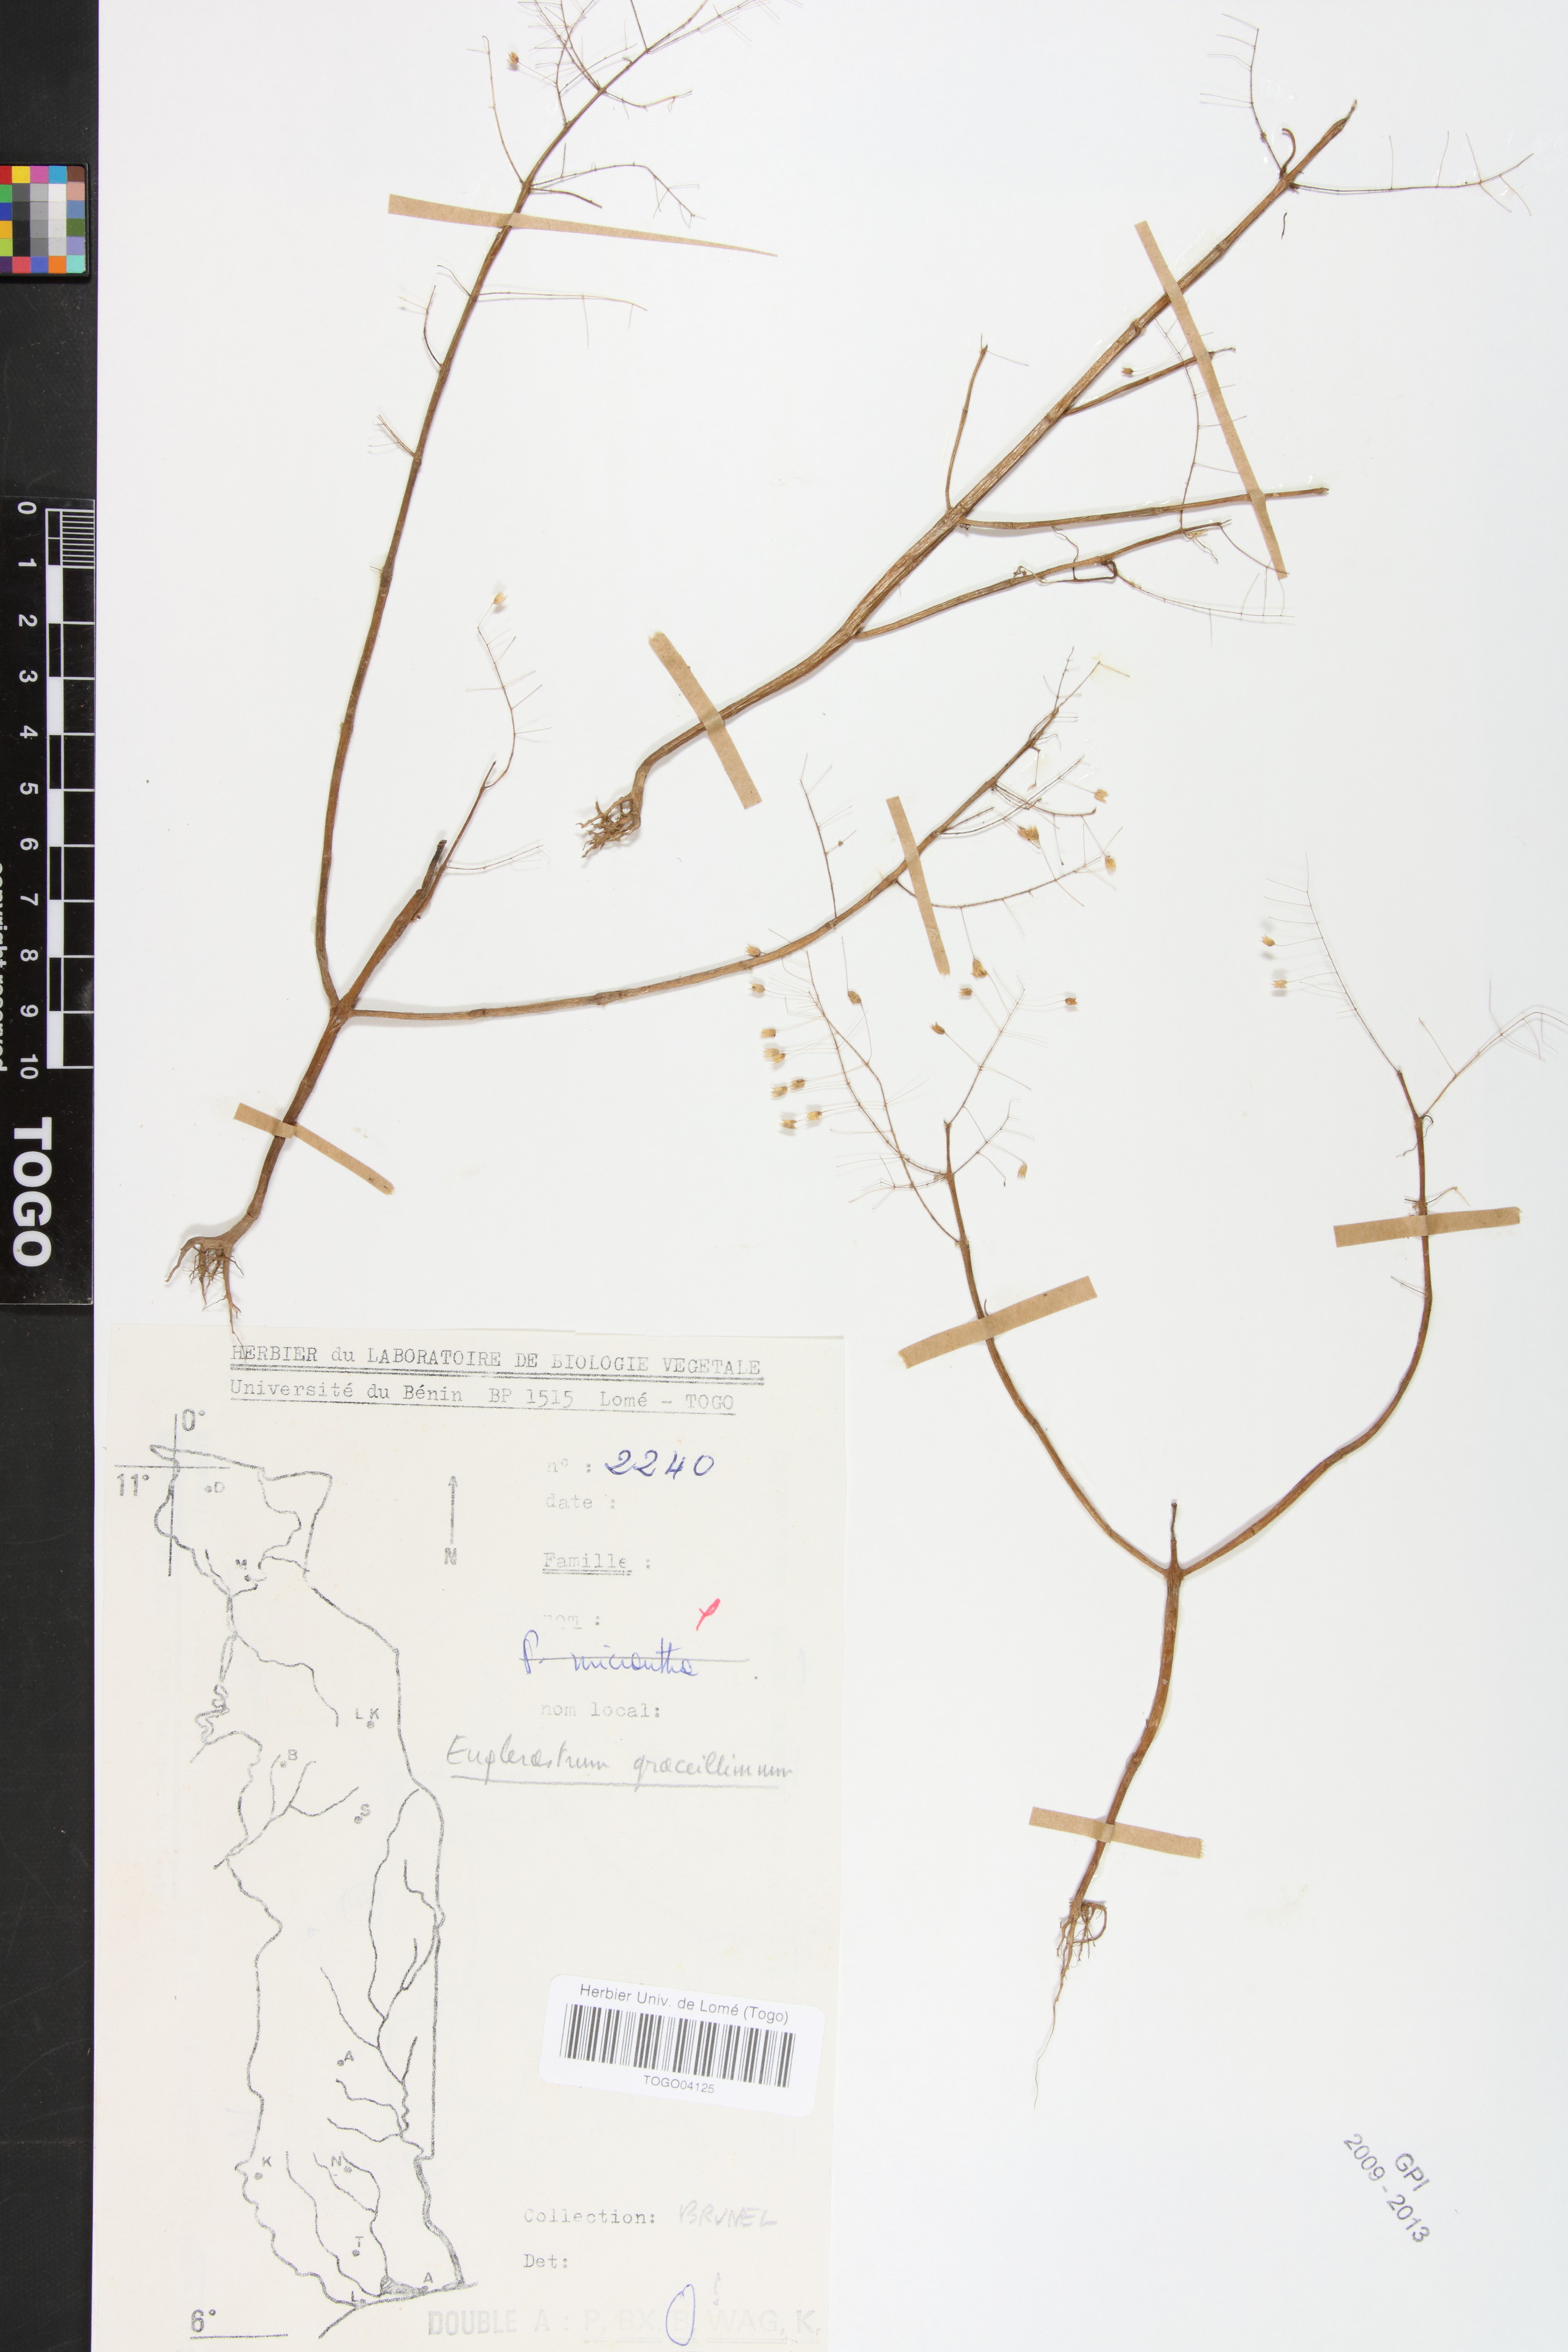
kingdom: Plantae
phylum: Tracheophyta
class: Magnoliopsida
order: Lamiales
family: Lamiaceae
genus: Coleus
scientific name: Coleus gracillimus
